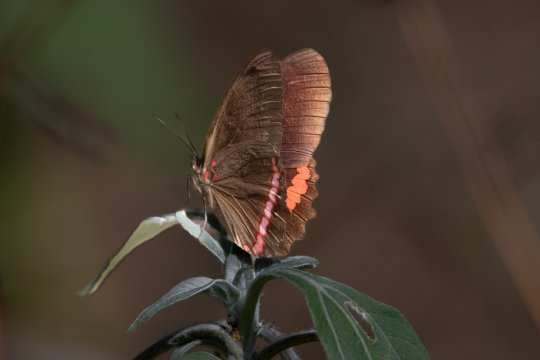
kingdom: Animalia
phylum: Arthropoda
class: Insecta
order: Lepidoptera
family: Nymphalidae
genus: Biblis
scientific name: Biblis aganisa
